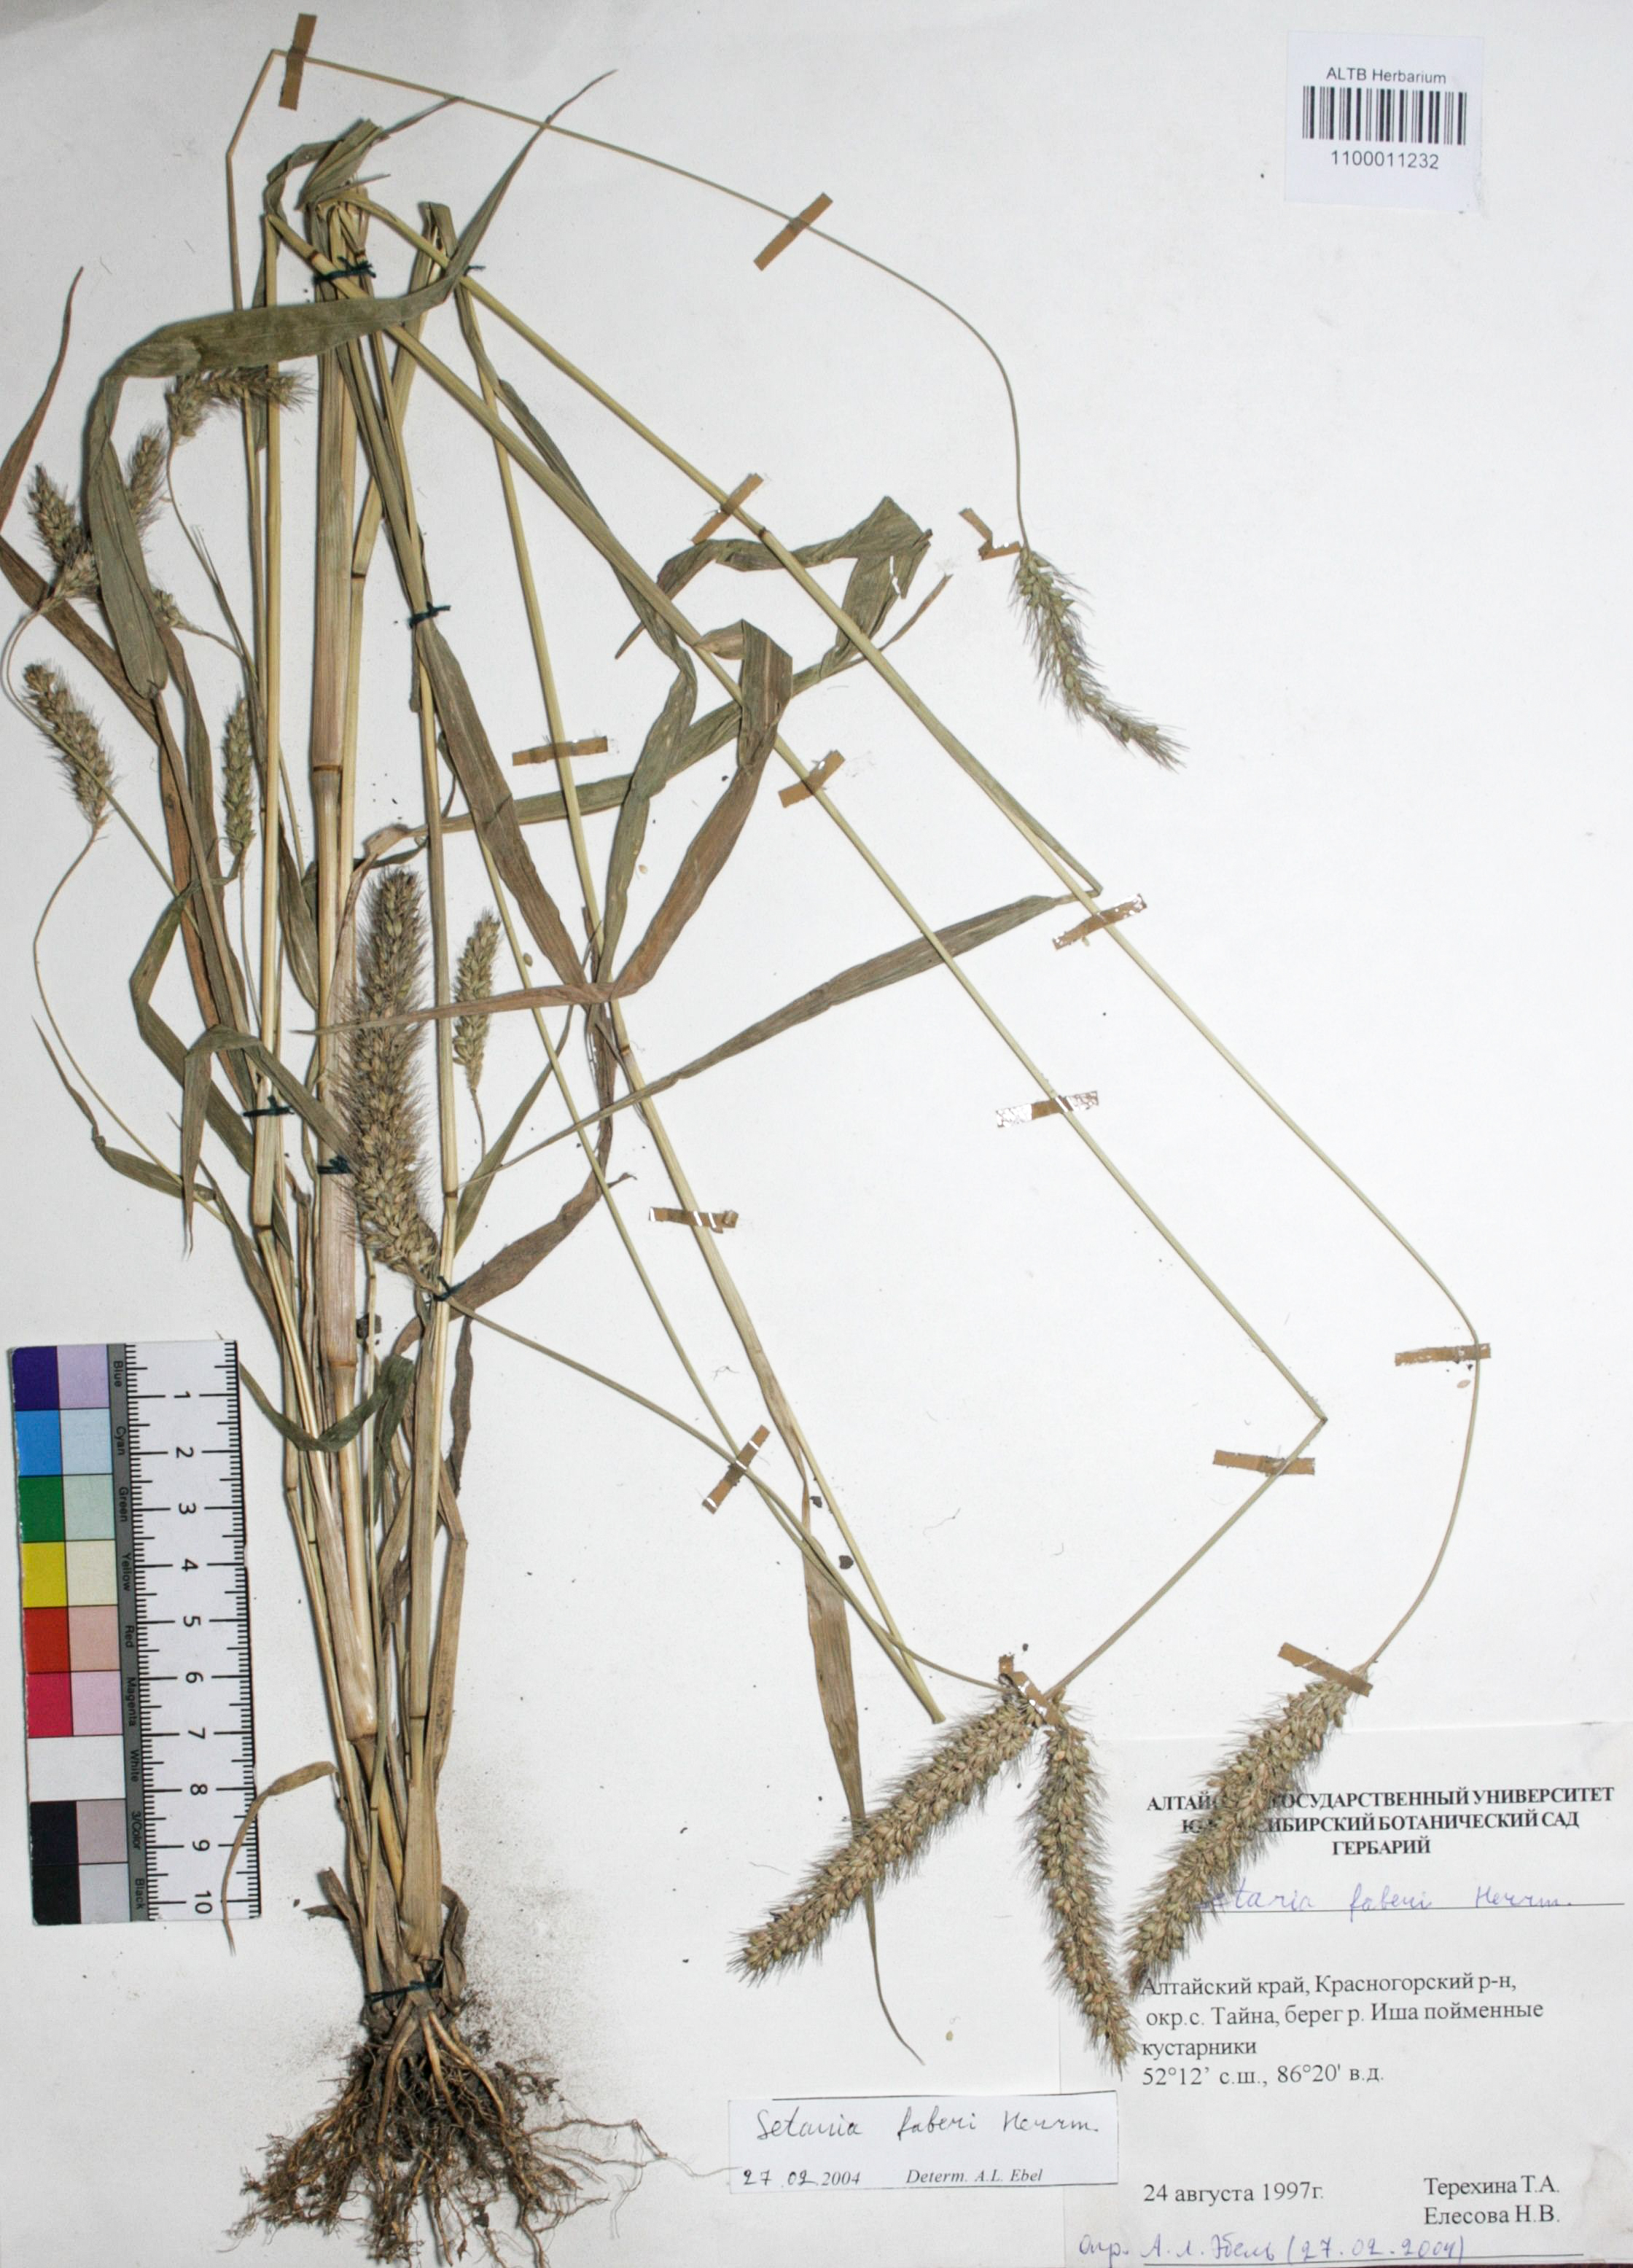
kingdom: Plantae
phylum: Tracheophyta
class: Liliopsida
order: Poales
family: Poaceae
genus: Setaria
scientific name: Setaria faberi
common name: Nodding bristle-grass
